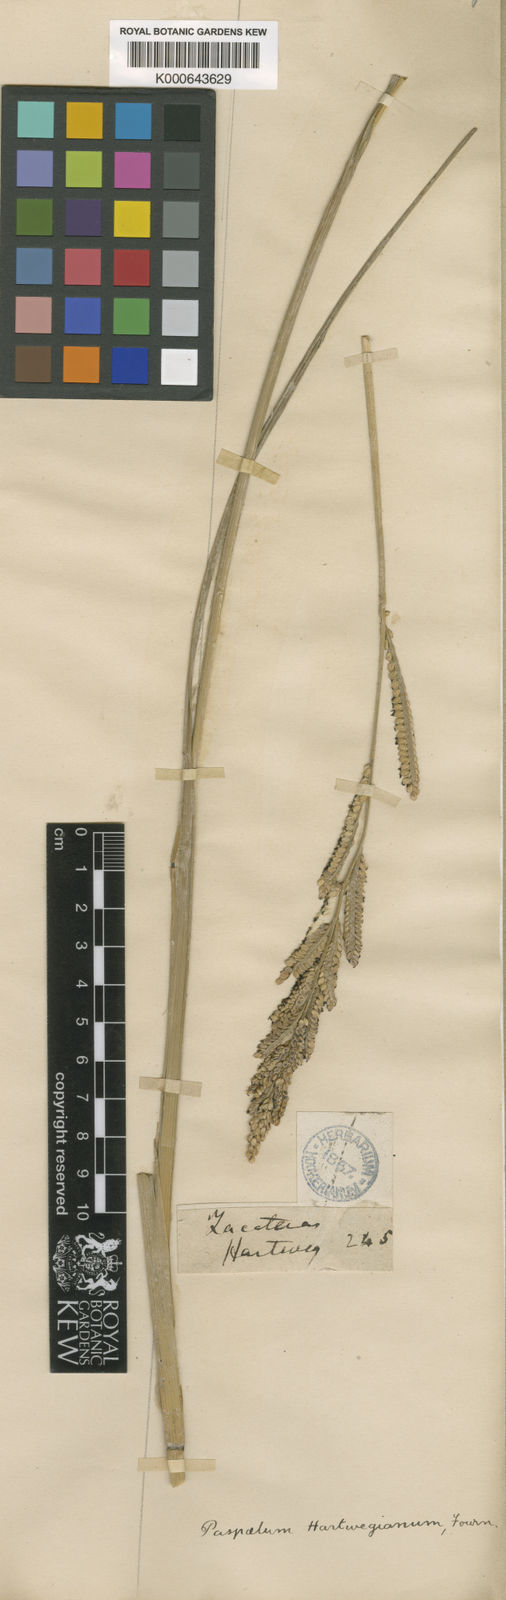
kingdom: Plantae
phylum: Tracheophyta
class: Liliopsida
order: Poales
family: Poaceae
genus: Paspalum
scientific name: Paspalum hartwegianum
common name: Hartweg's paspalum
